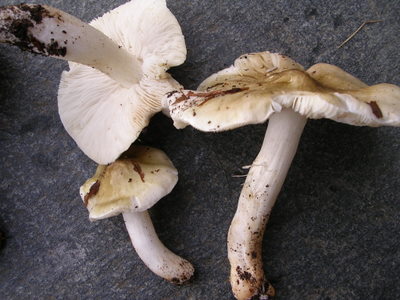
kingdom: Fungi
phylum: Basidiomycota
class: Agaricomycetes
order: Agaricales
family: Tricholomataceae
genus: Tricholoma
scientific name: Tricholoma umbonatum
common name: puklet ridderhat
